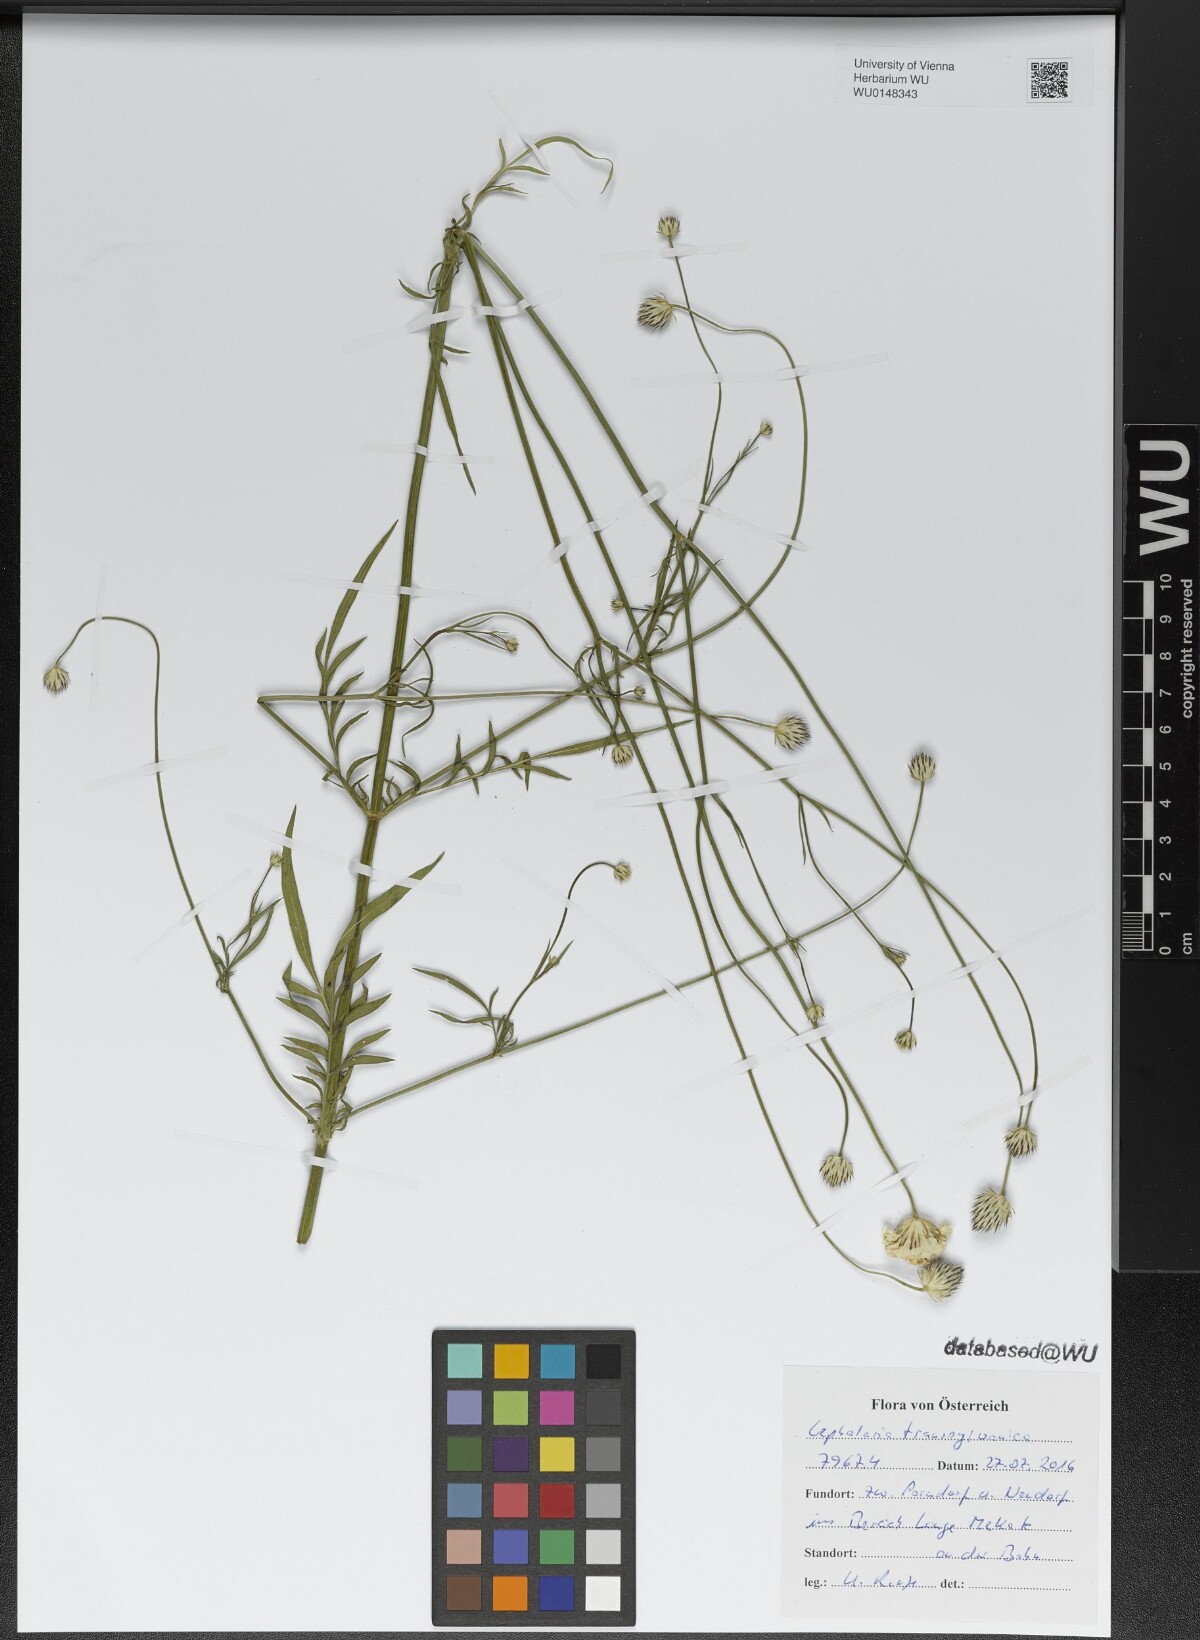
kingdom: Plantae
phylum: Tracheophyta
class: Magnoliopsida
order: Dipsacales
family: Caprifoliaceae
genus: Cephalaria
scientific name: Cephalaria transsylvanica
